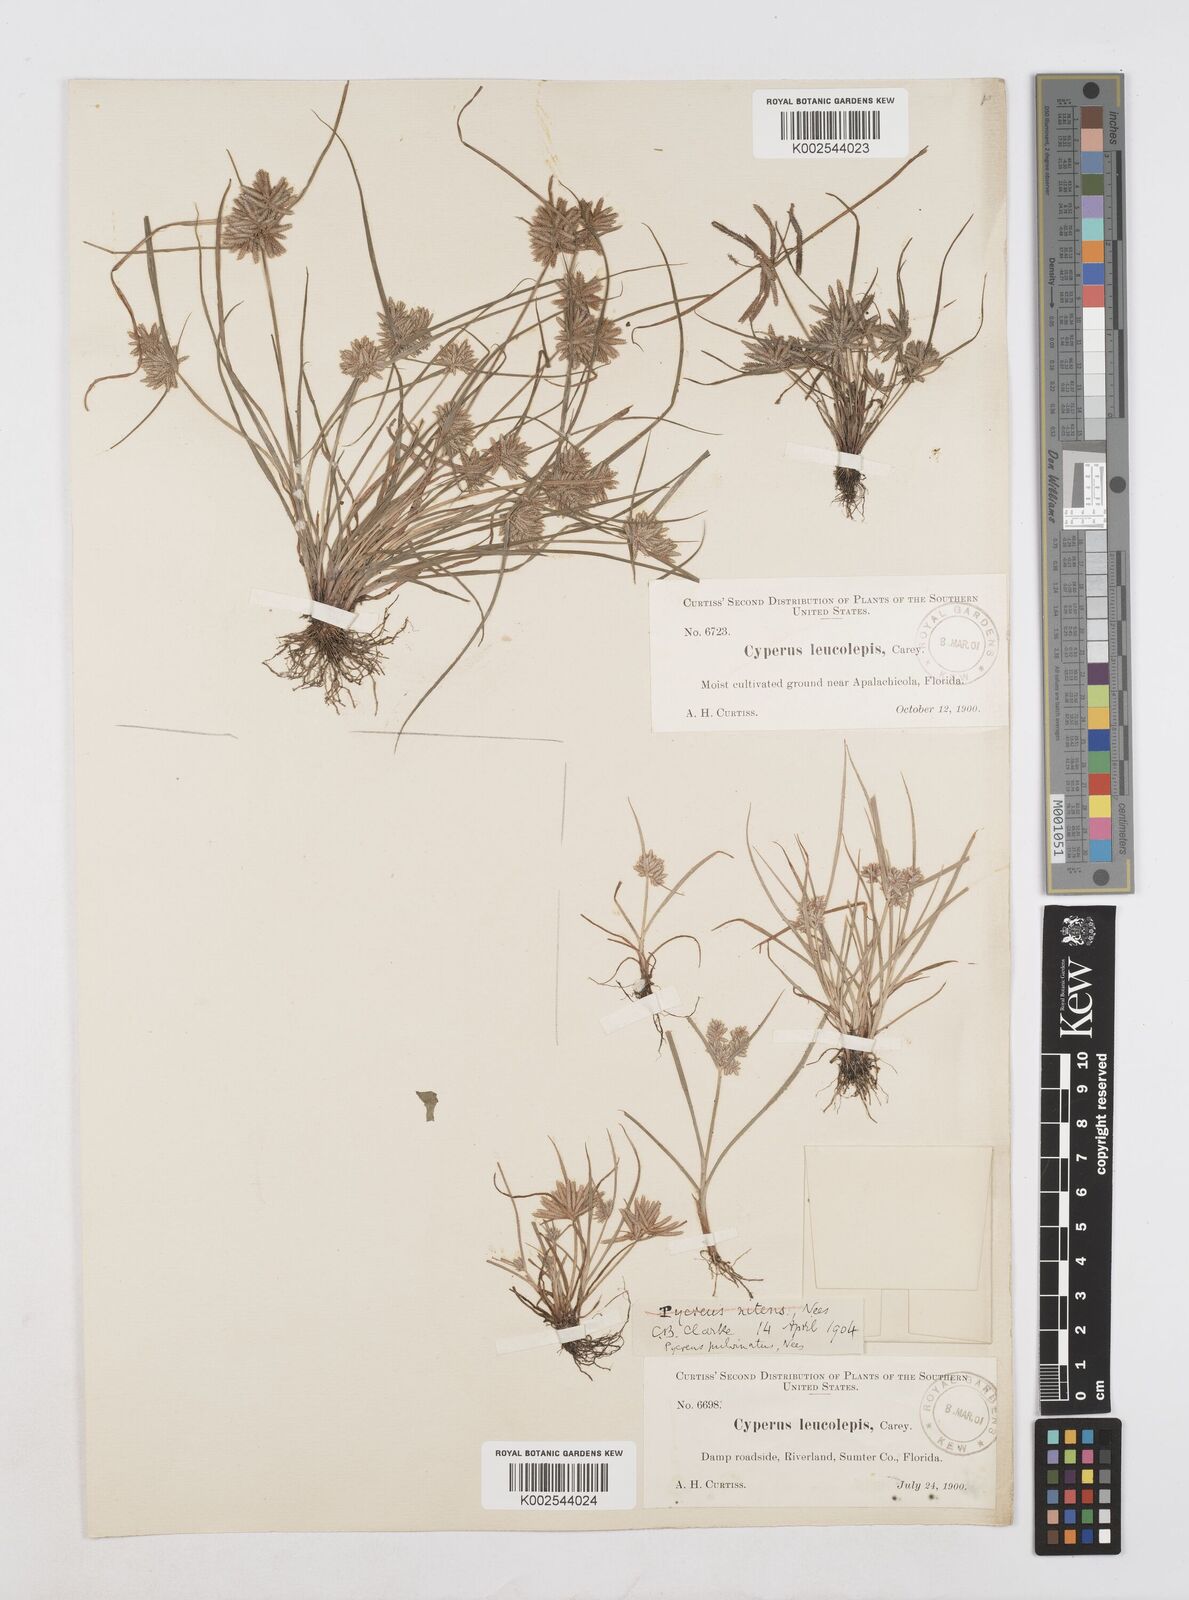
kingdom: Plantae
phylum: Tracheophyta
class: Liliopsida
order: Poales
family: Cyperaceae
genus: Cyperus
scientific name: Cyperus pumilus
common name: Low flatsedge
